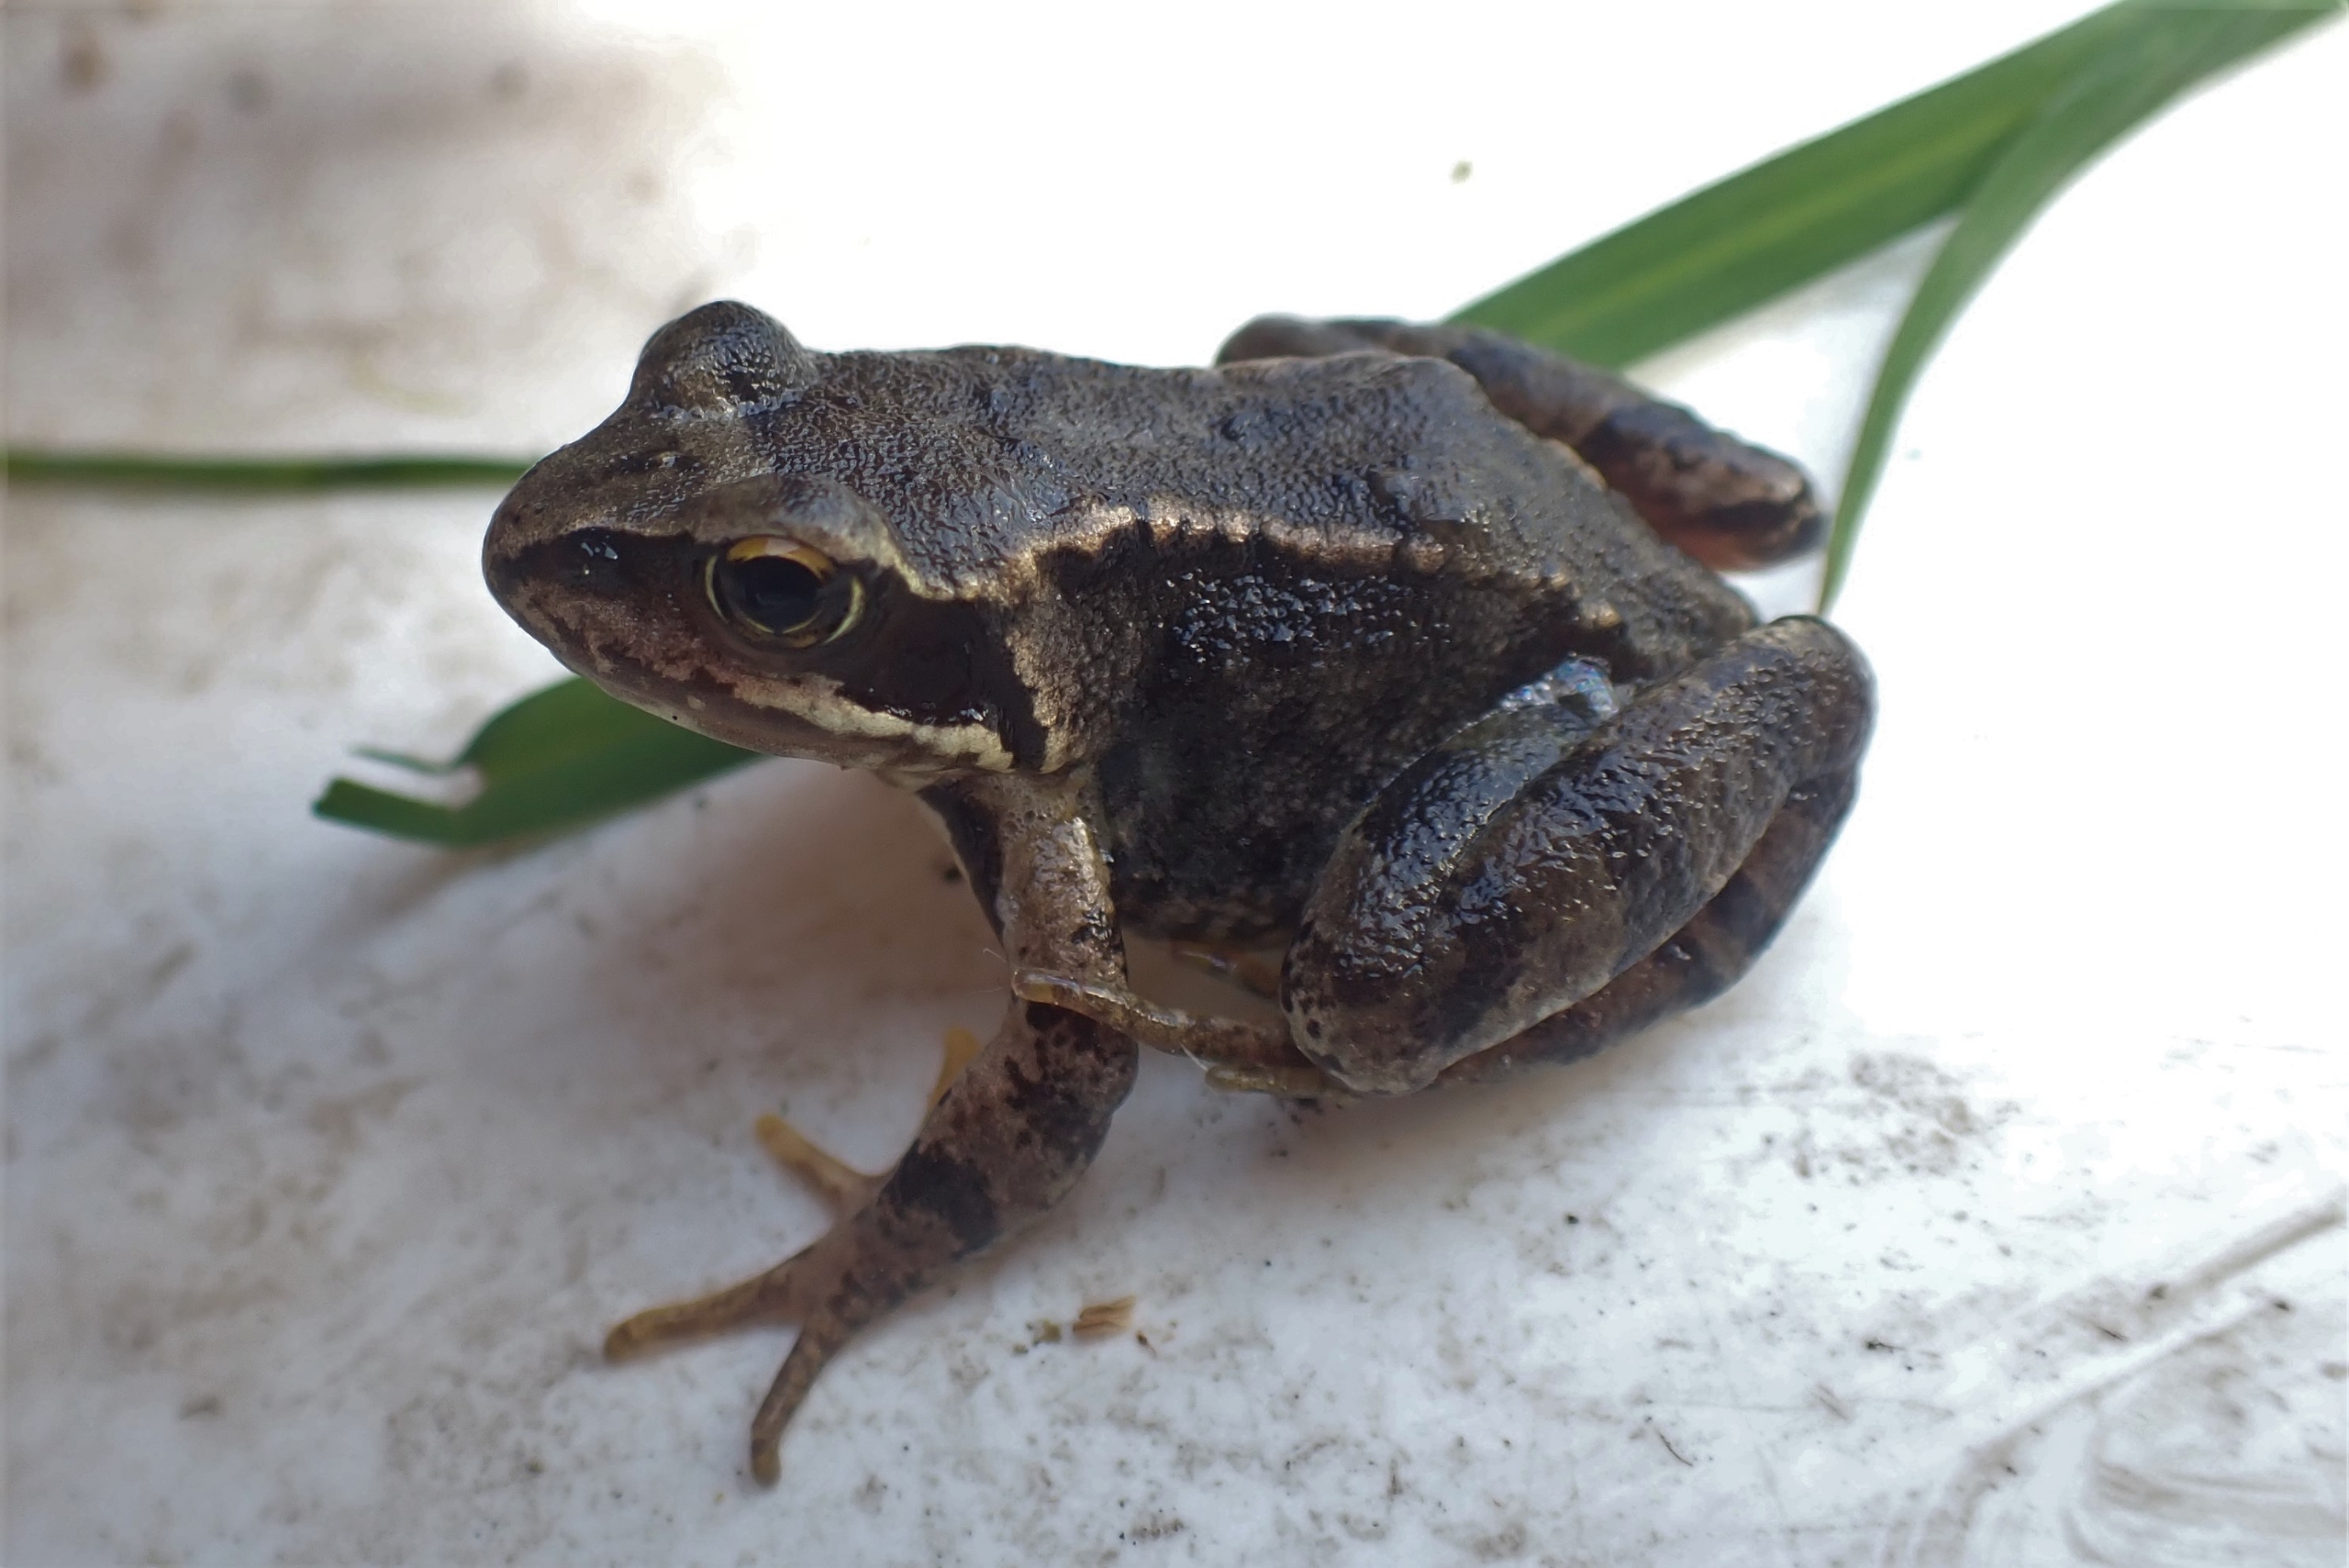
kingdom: Animalia
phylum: Chordata
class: Amphibia
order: Anura
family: Ranidae
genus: Rana
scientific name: Rana temporaria
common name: Butsnudet frø
